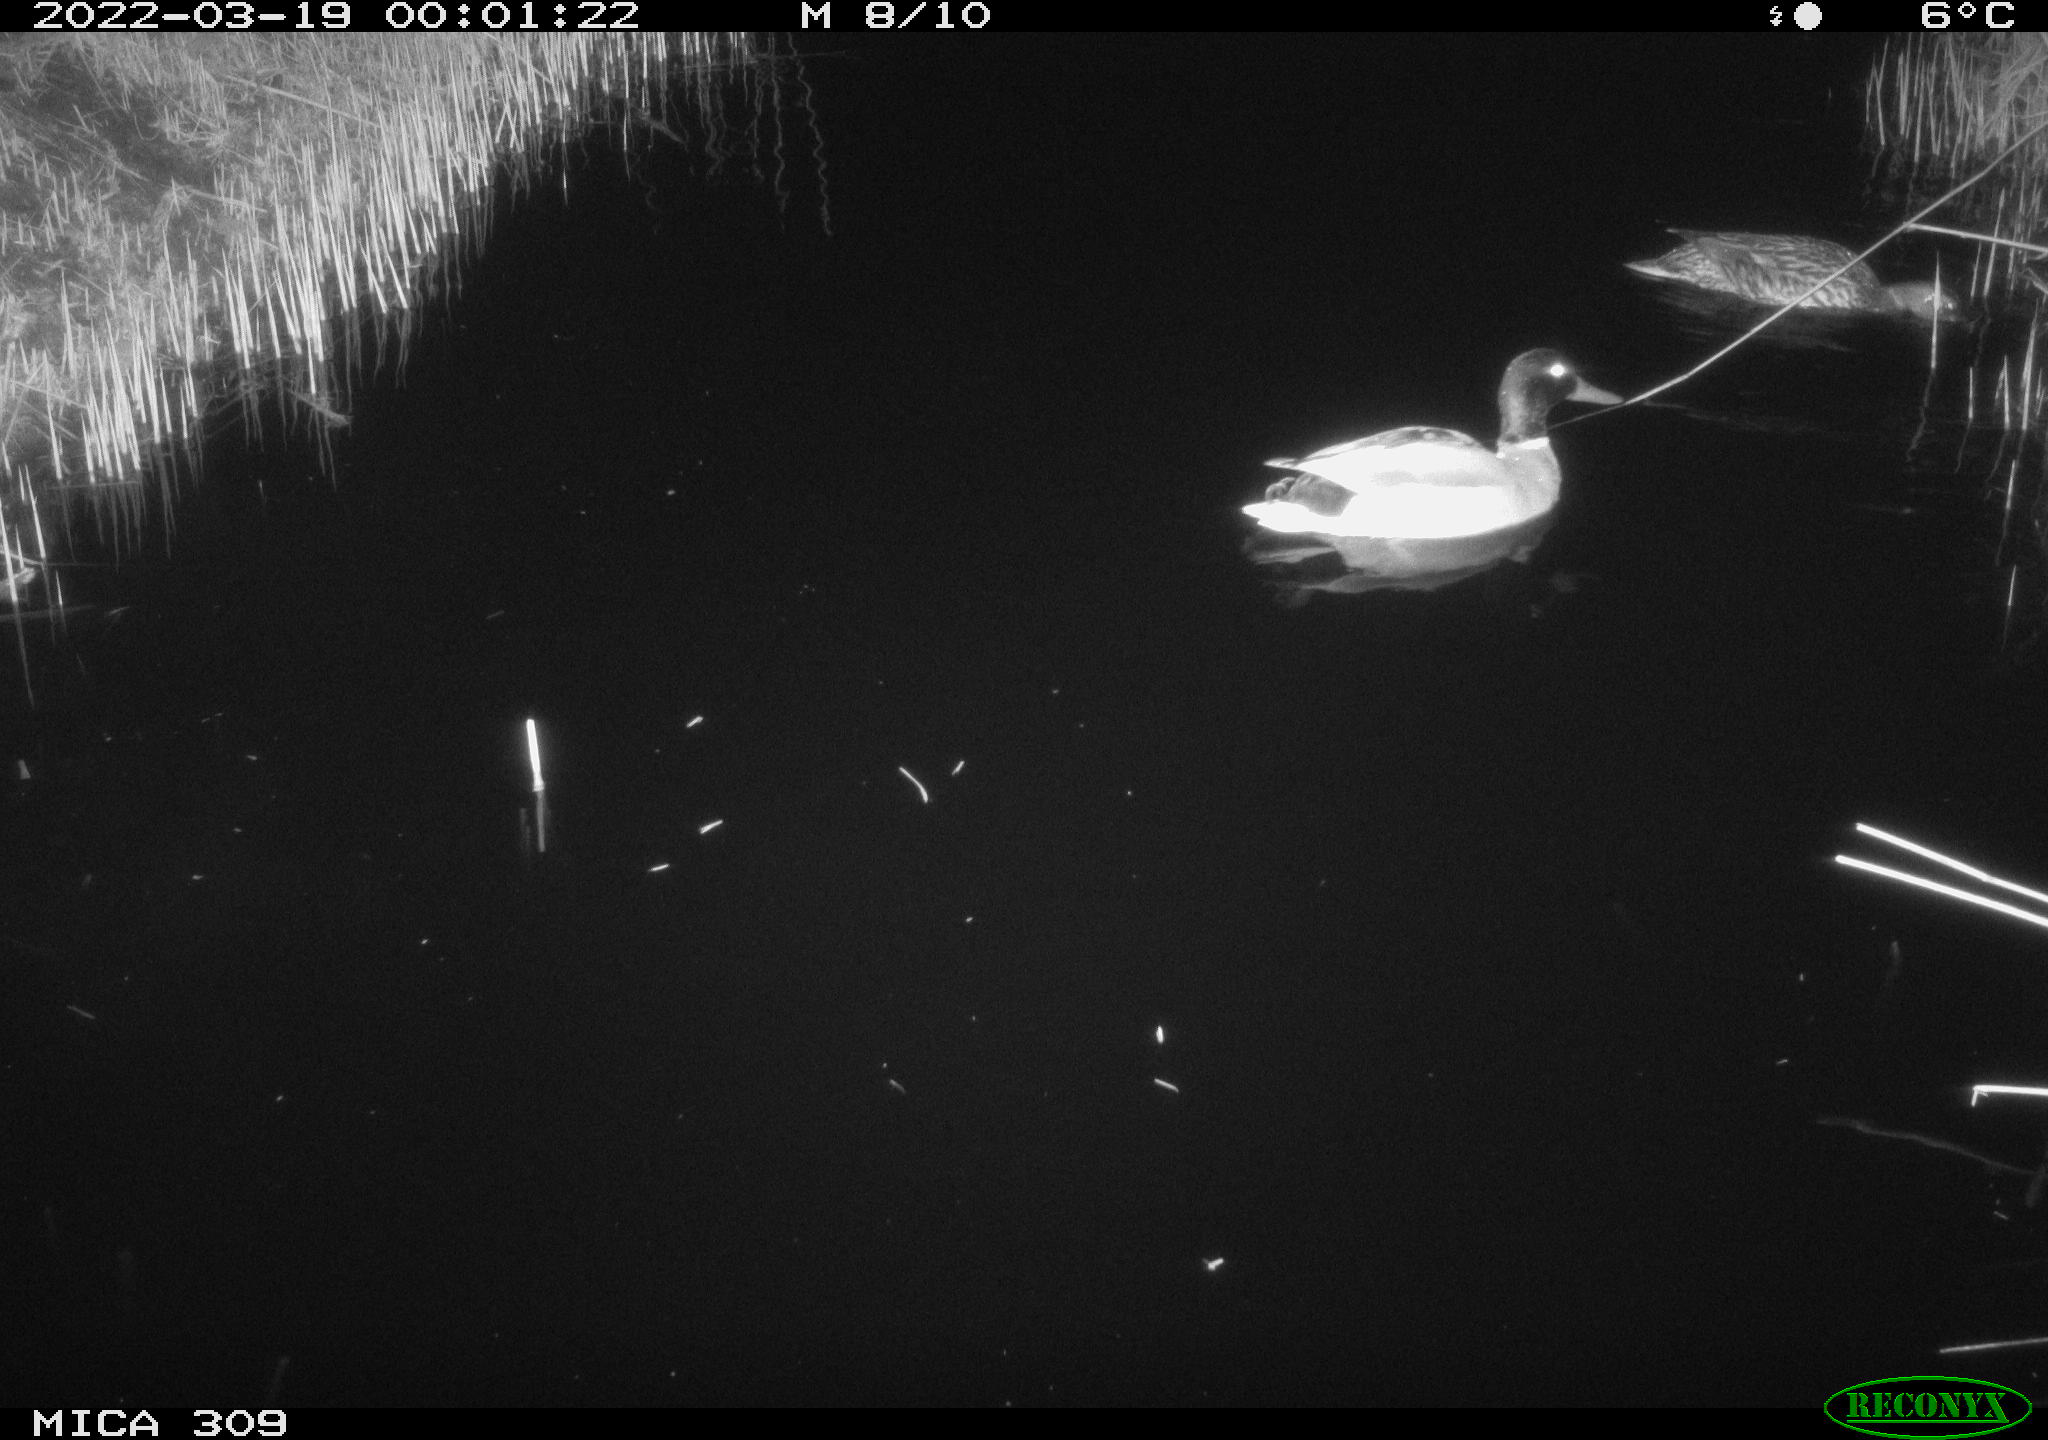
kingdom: Animalia
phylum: Chordata
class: Aves
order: Anseriformes
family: Anatidae
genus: Anas
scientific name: Anas platyrhynchos
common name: Mallard
